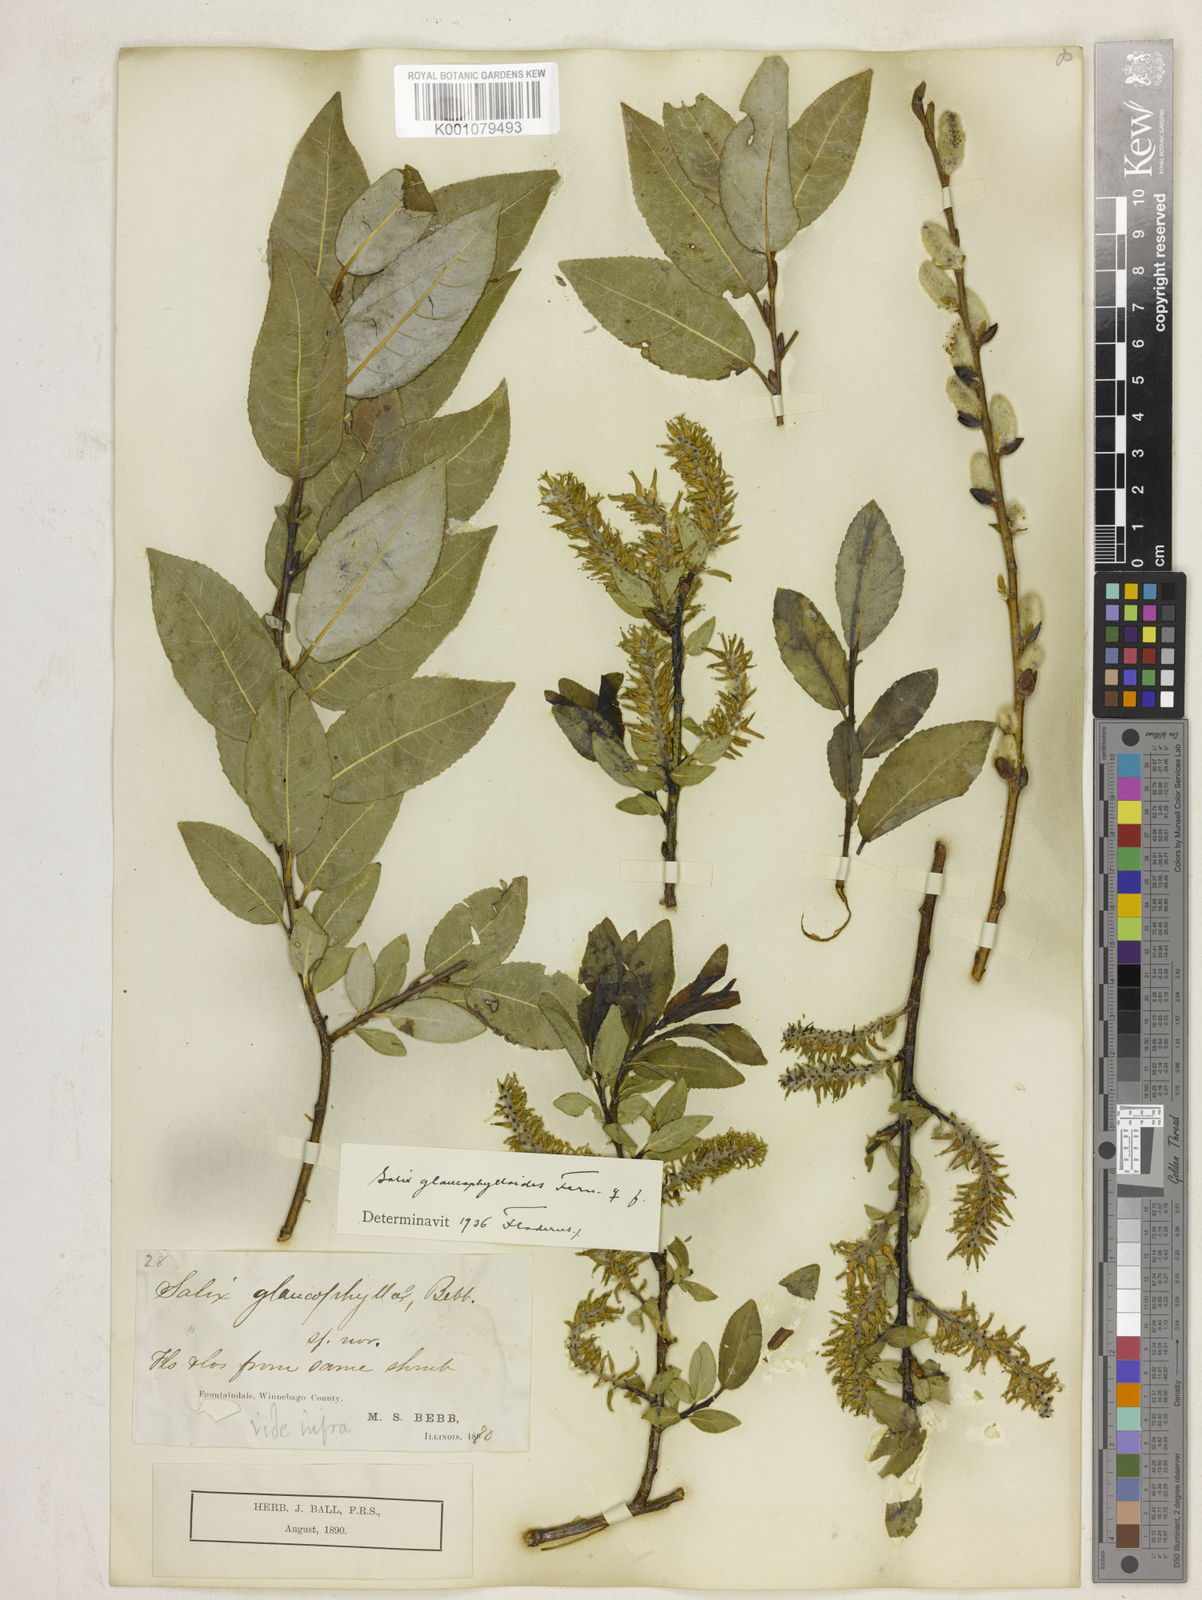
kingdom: Plantae
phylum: Tracheophyta
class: Magnoliopsida
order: Malpighiales
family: Salicaceae
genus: Salix
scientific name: Salix
